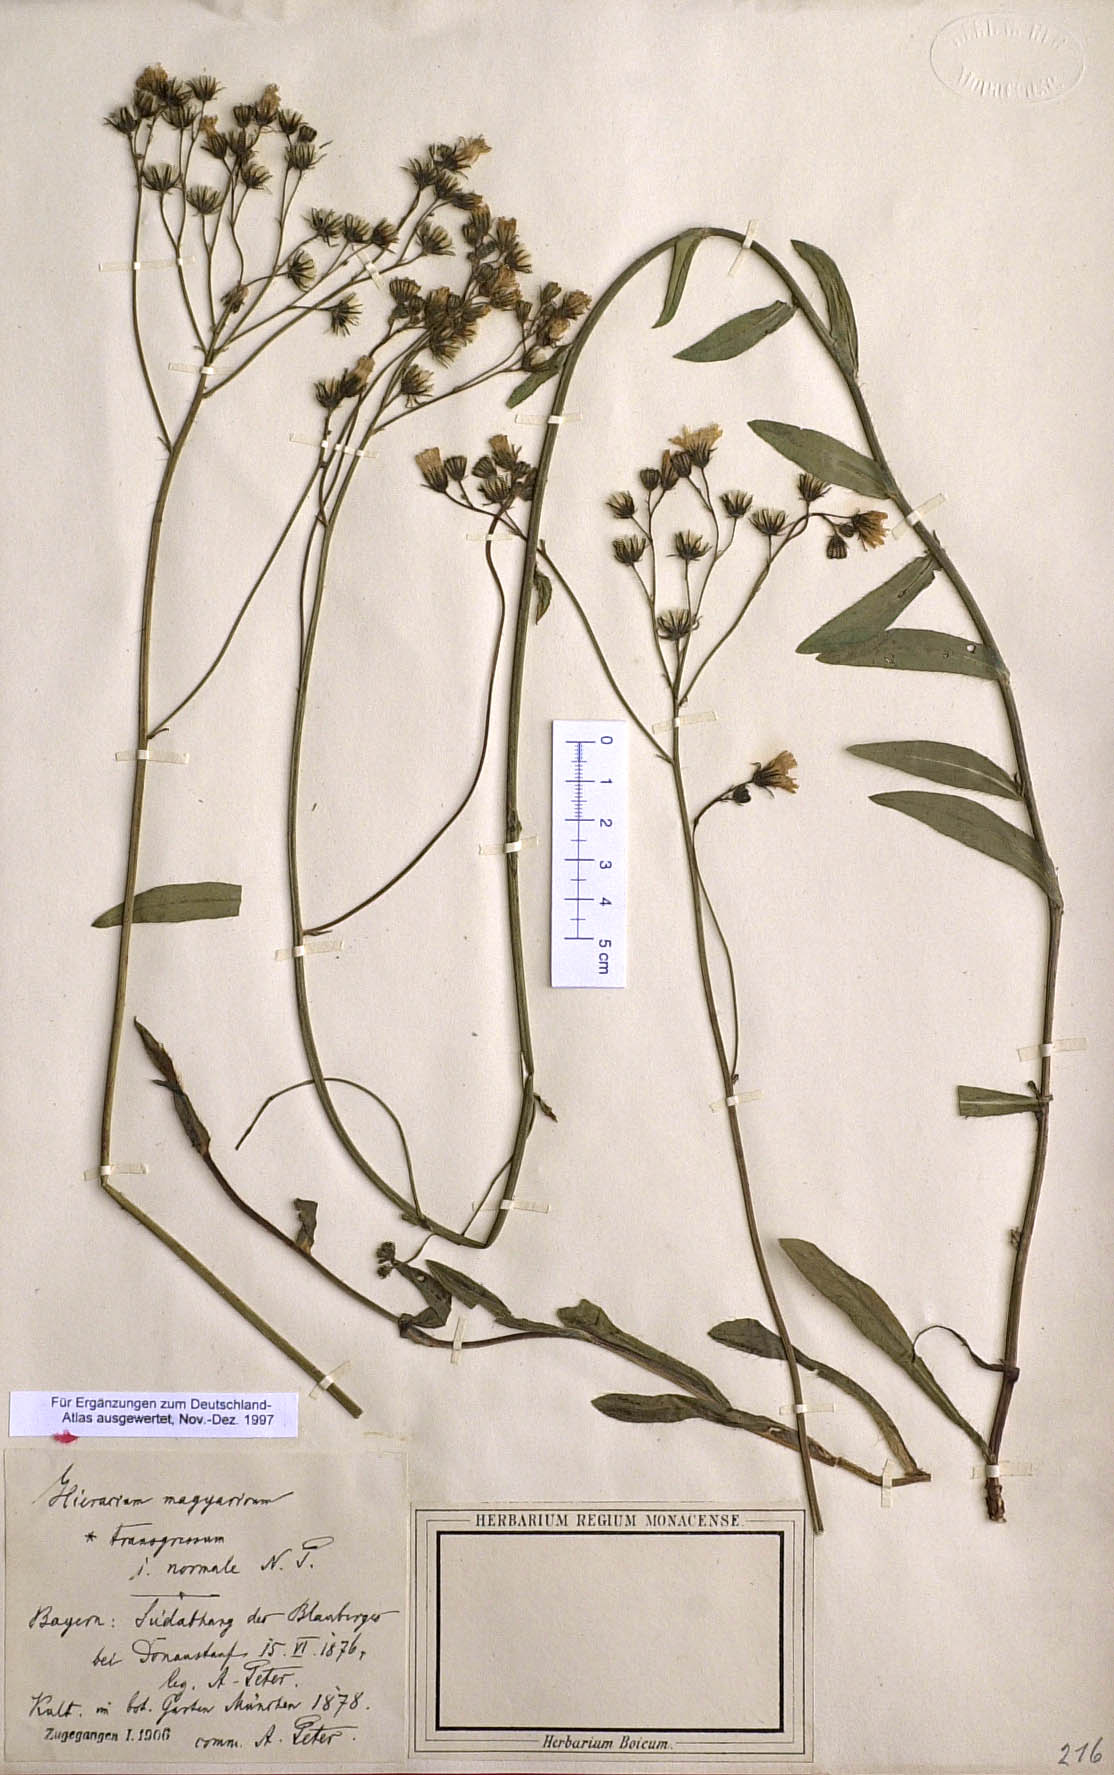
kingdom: Plantae
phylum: Tracheophyta
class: Magnoliopsida
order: Asterales
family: Asteraceae
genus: Pilosella
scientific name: Pilosella bauhini
